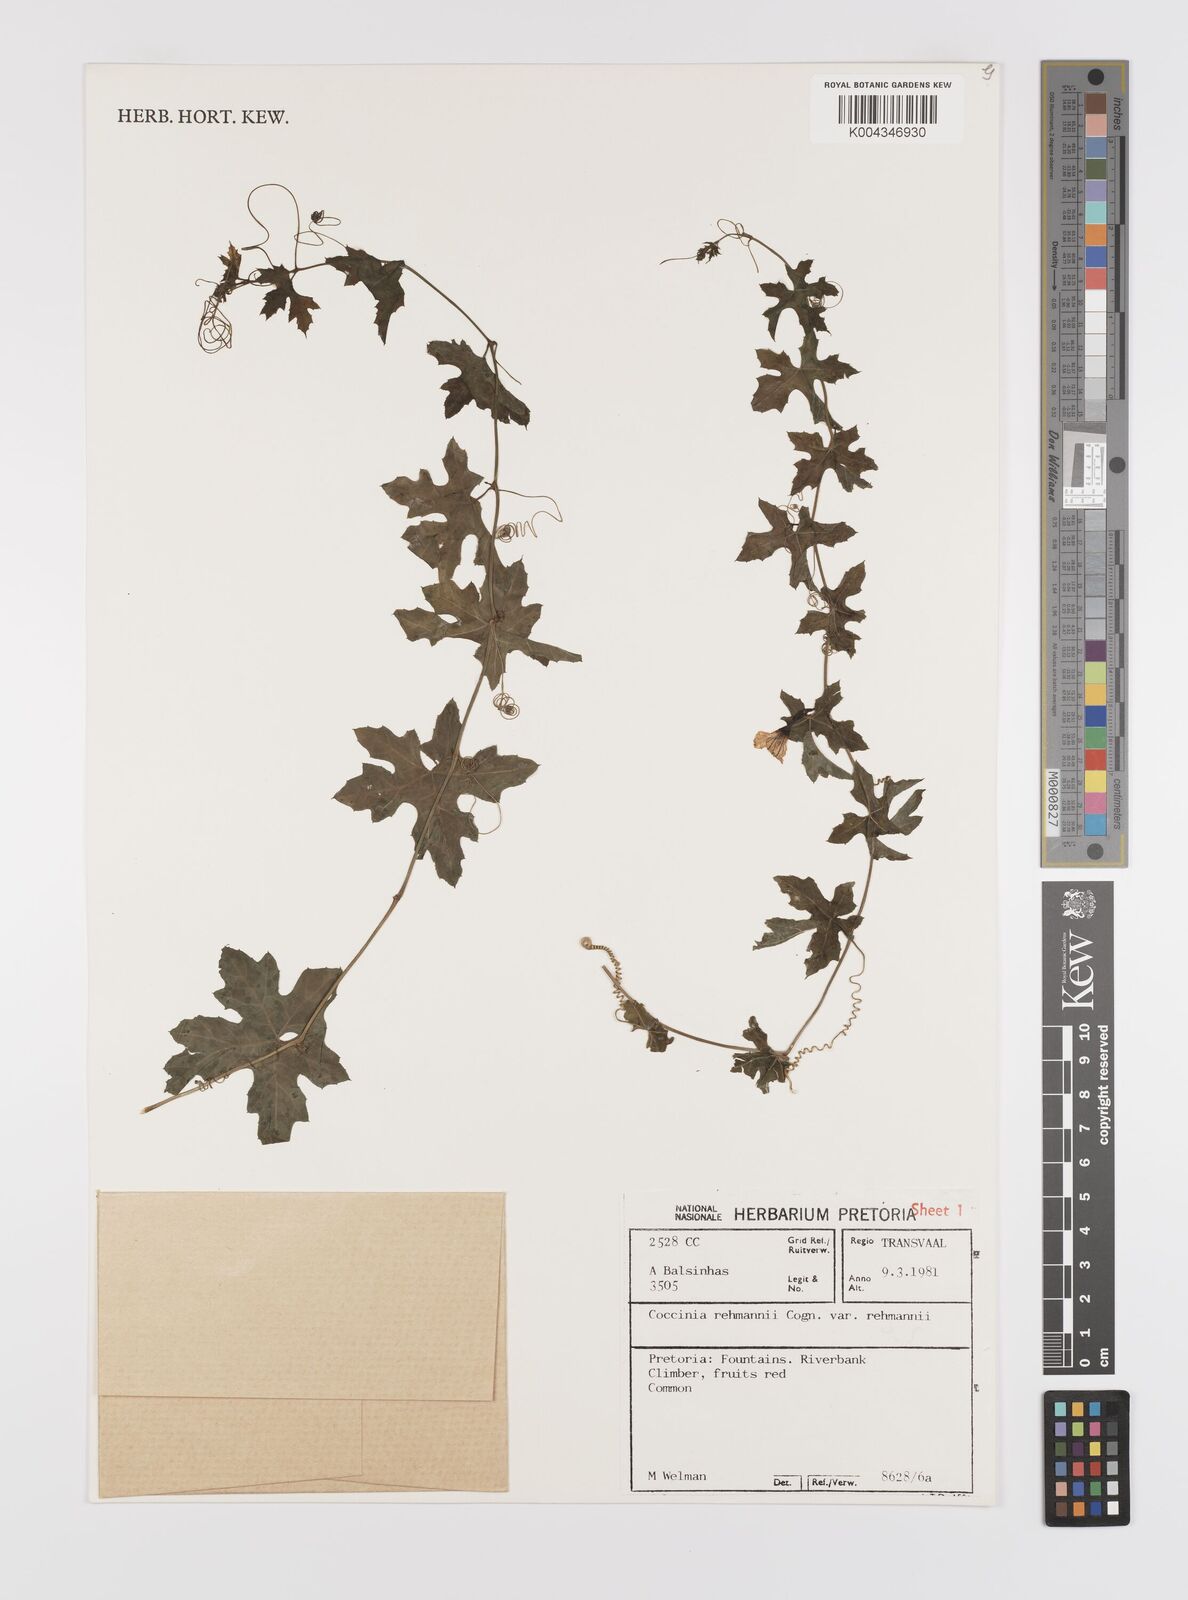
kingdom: Plantae
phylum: Tracheophyta
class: Magnoliopsida
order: Cucurbitales
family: Cucurbitaceae
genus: Coccinia
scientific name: Coccinia rehmannii
